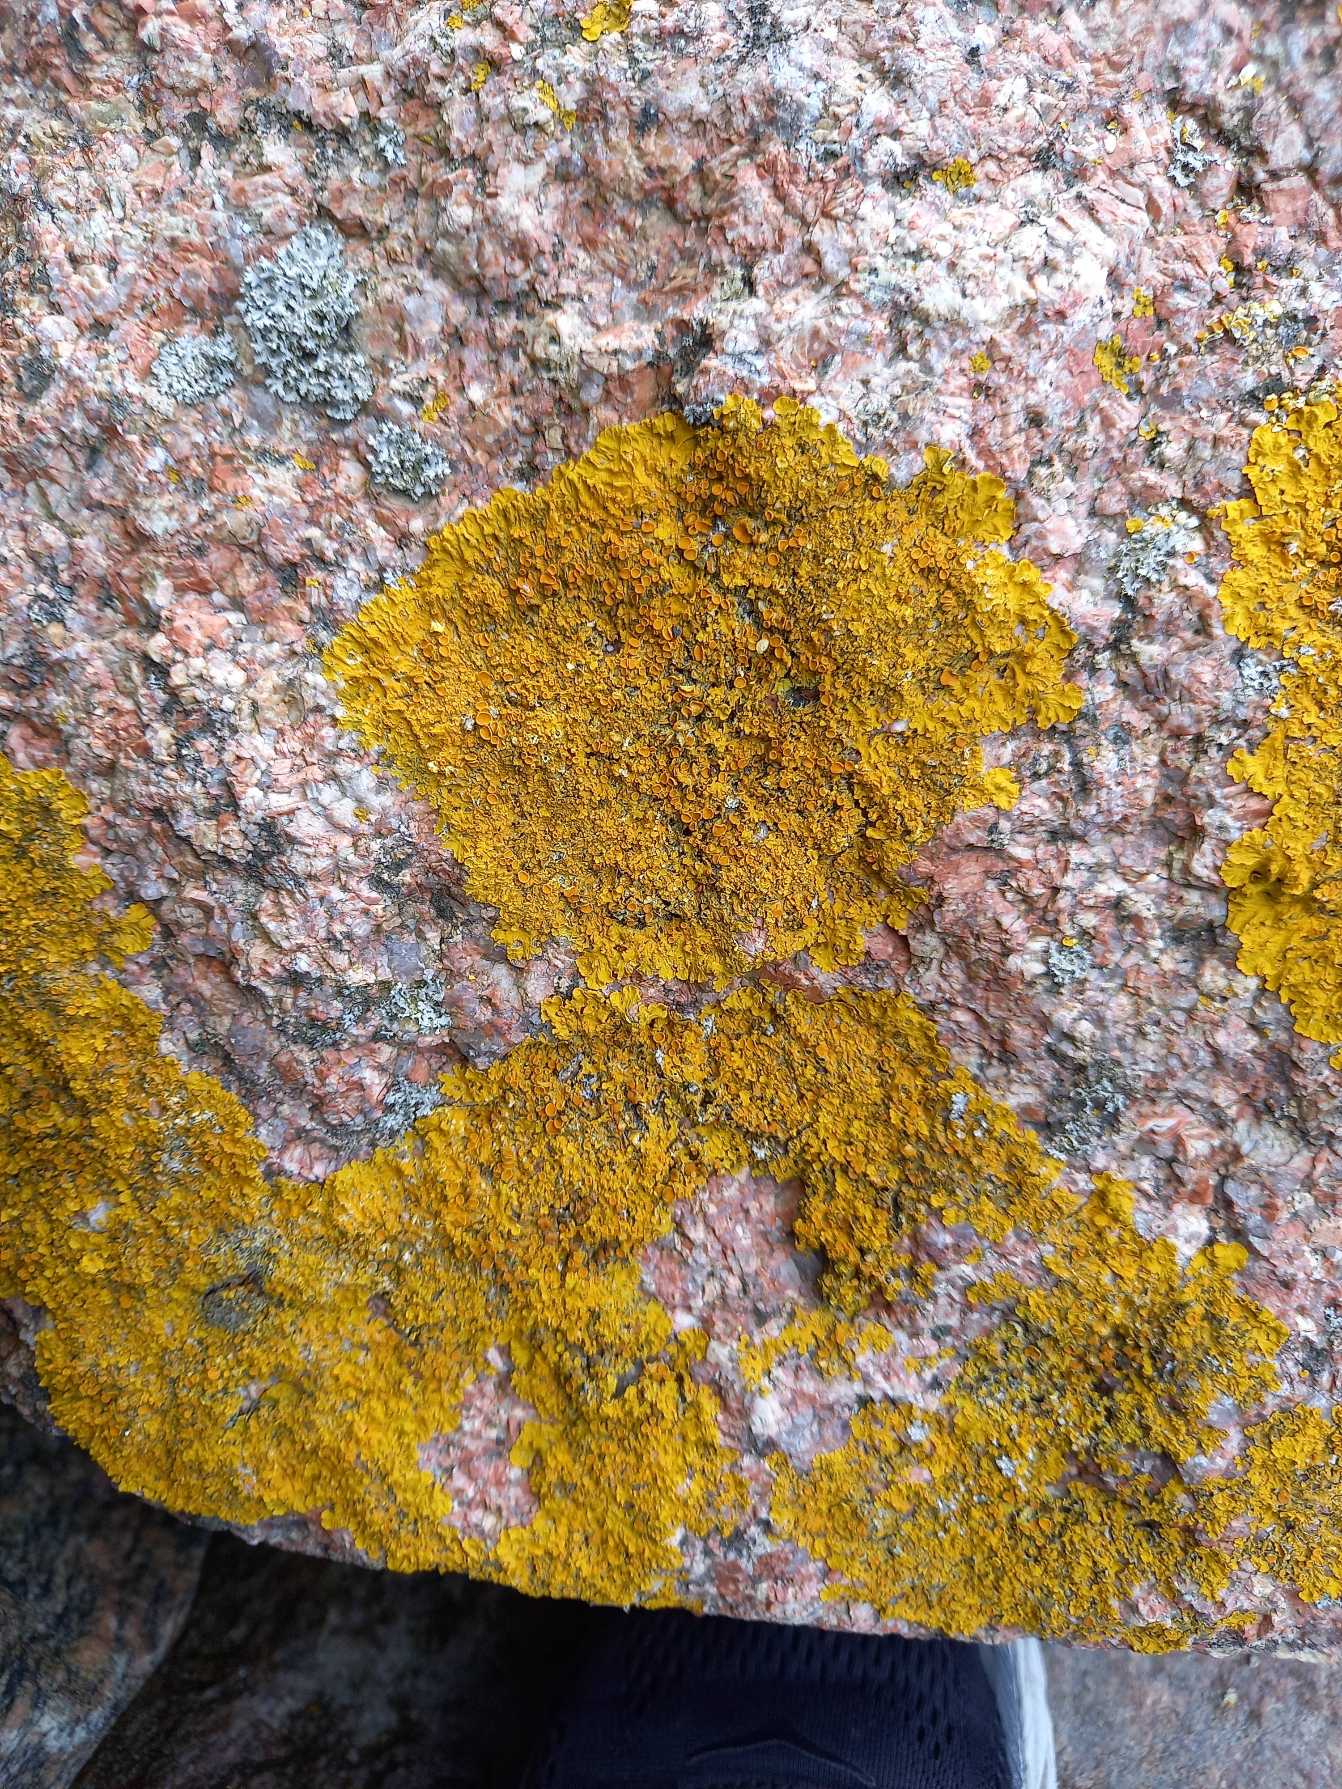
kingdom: Fungi
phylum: Ascomycota
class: Lecanoromycetes
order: Teloschistales
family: Teloschistaceae
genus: Xanthoria
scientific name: Xanthoria parietina
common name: Almindelig væggelav
